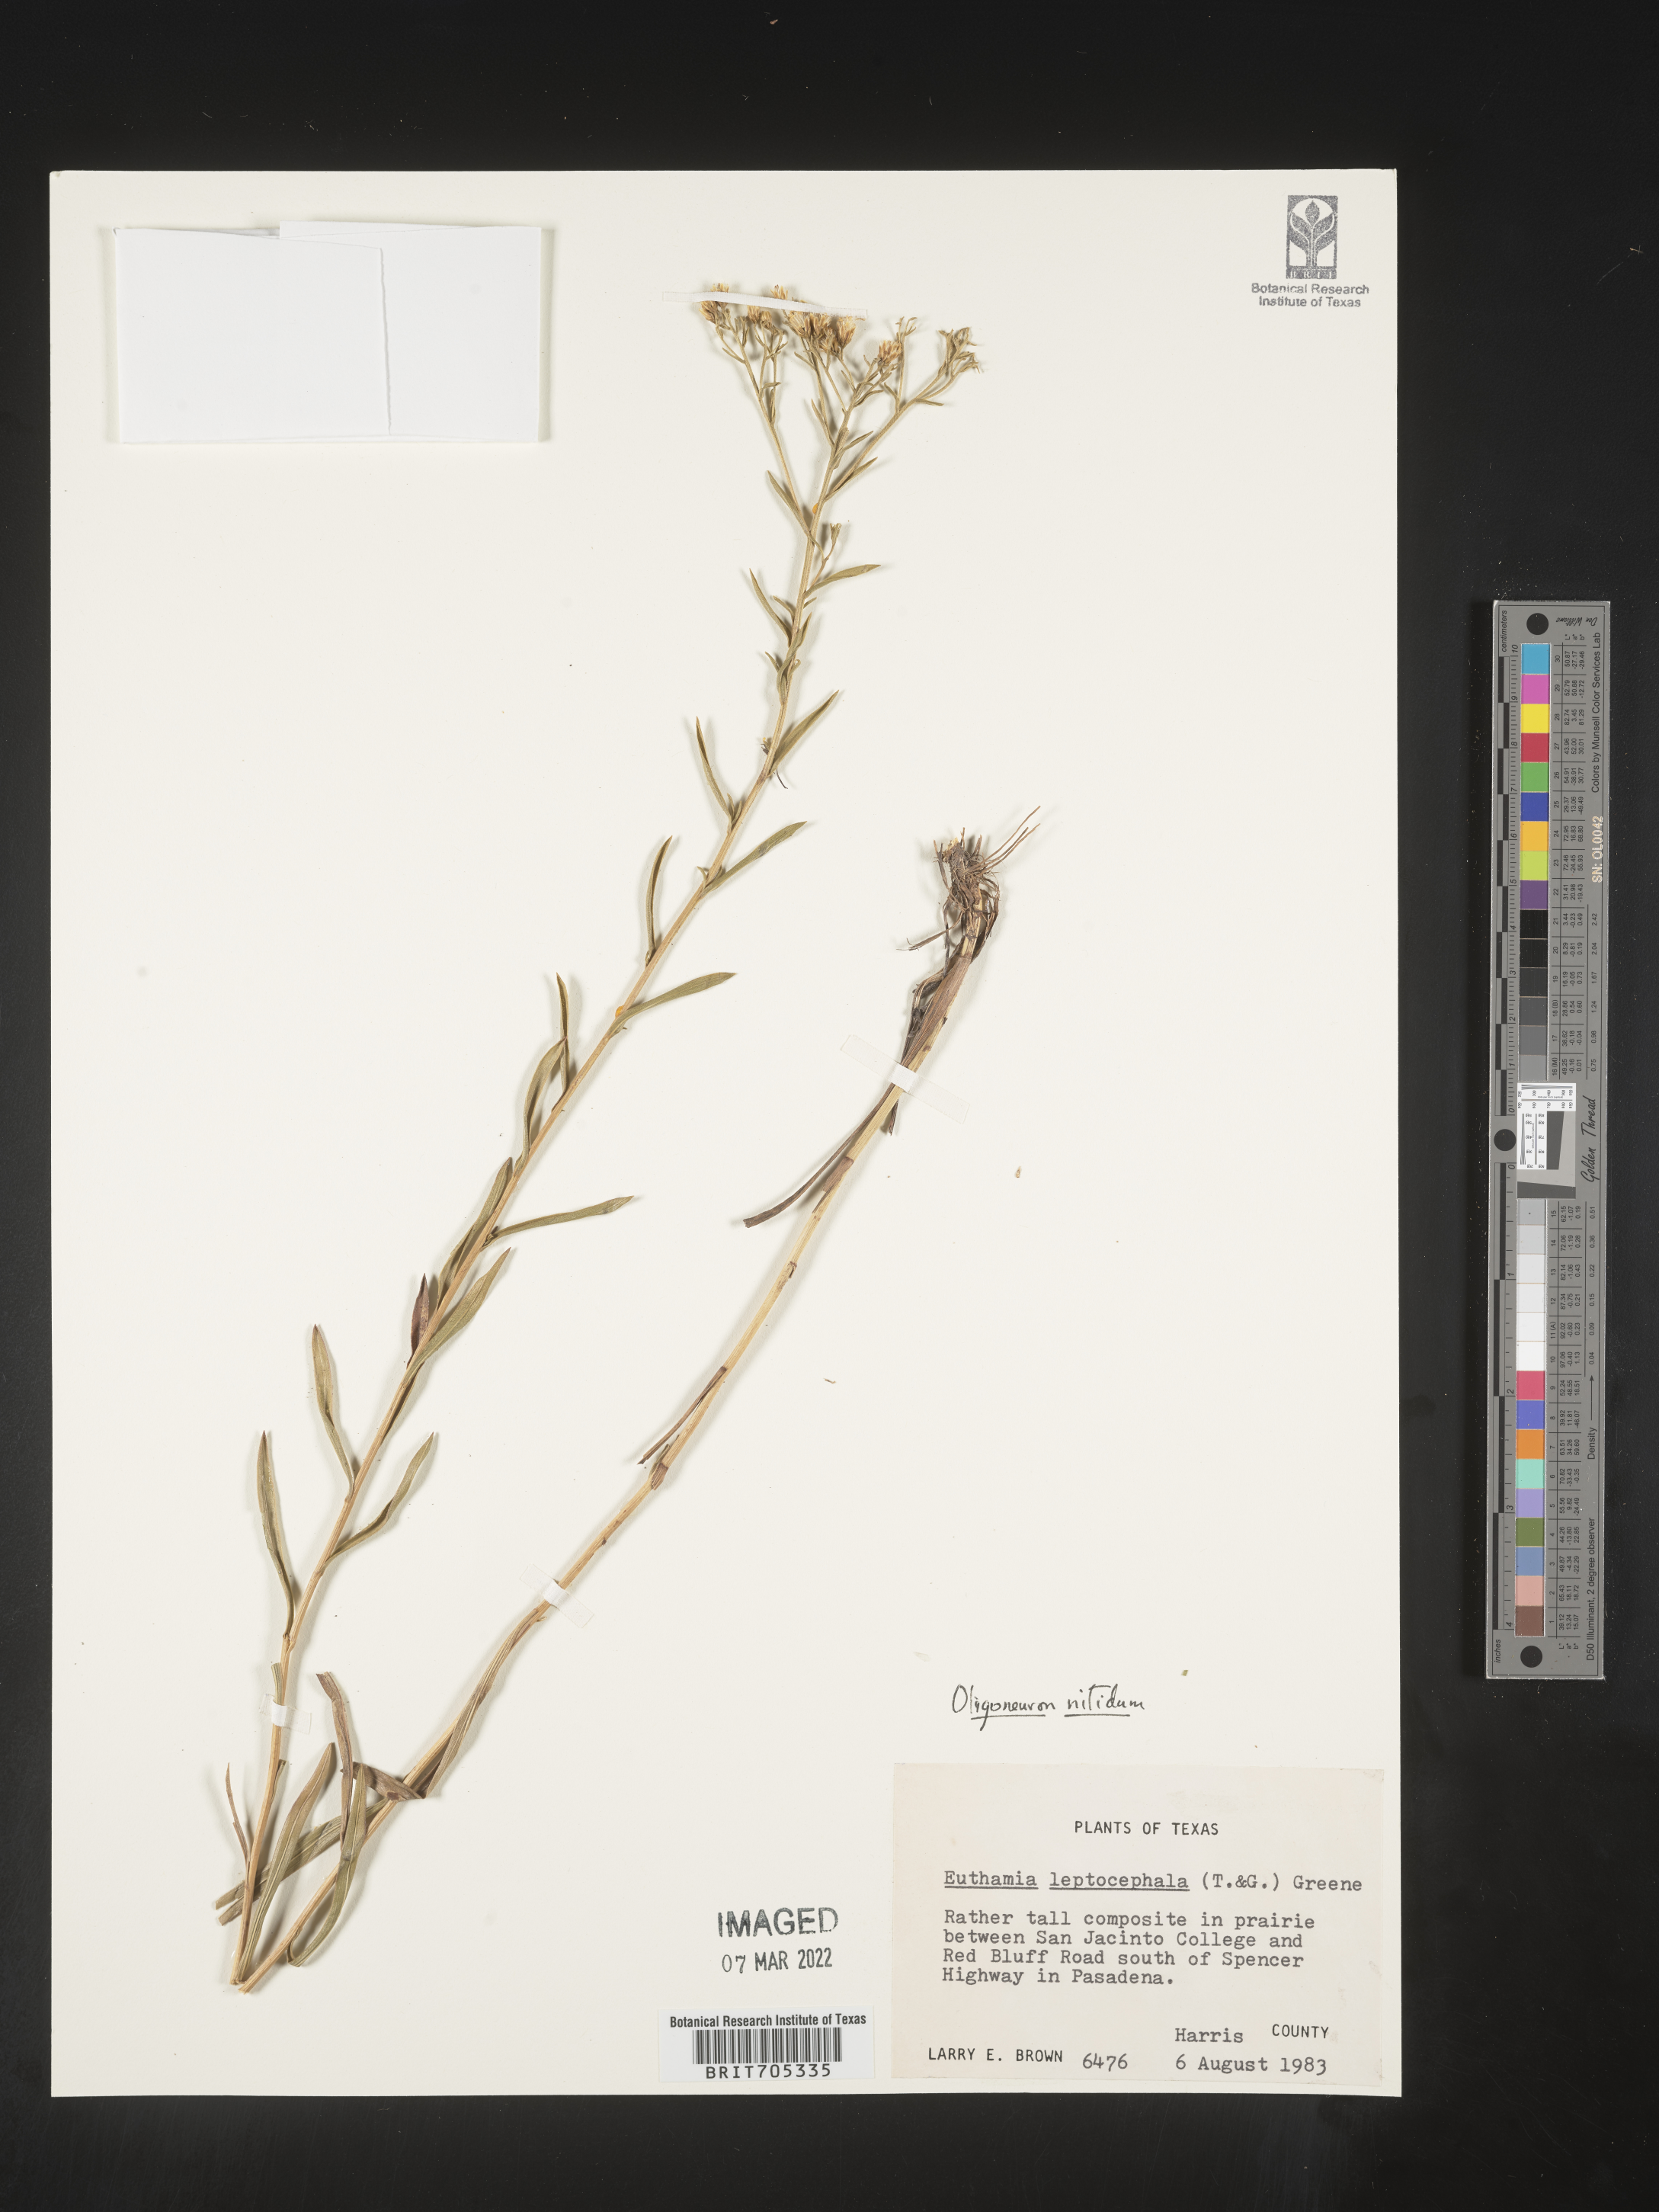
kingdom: Plantae
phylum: Tracheophyta
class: Magnoliopsida
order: Asterales
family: Asteraceae
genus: Solidago
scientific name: Solidago nitida
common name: Shiny goldenrod
